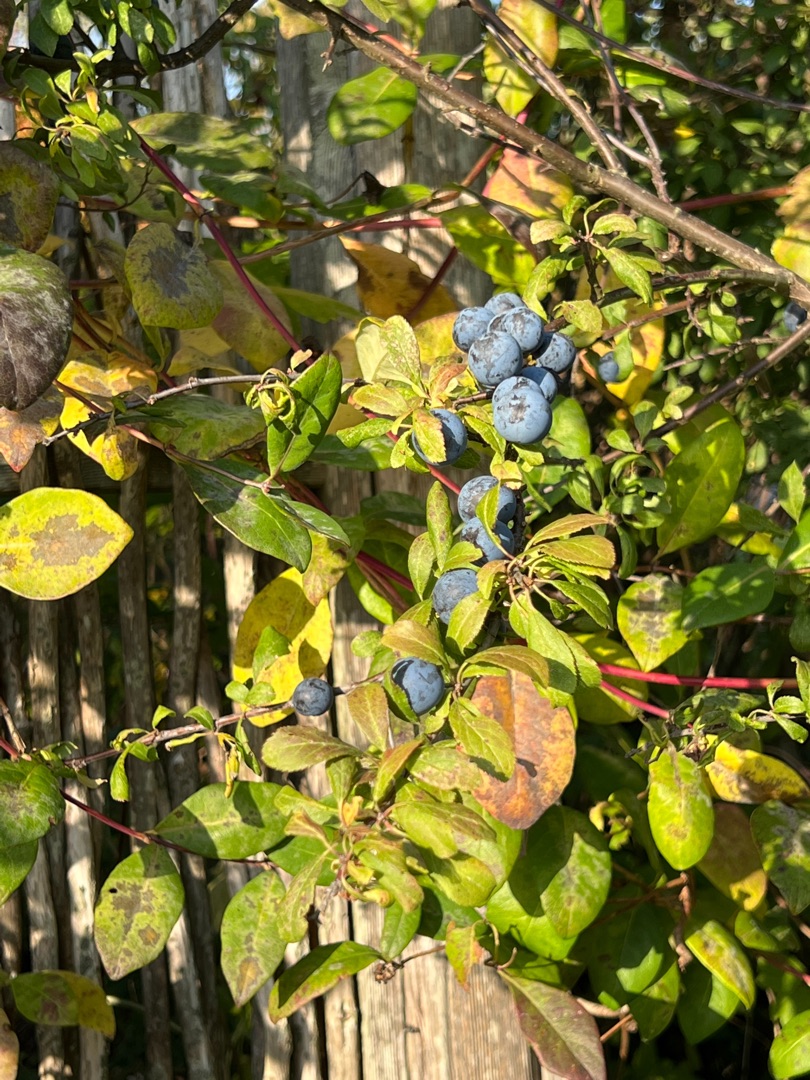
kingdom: Plantae
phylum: Tracheophyta
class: Magnoliopsida
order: Rosales
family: Rosaceae
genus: Prunus
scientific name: Prunus spinosa
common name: Slåen
